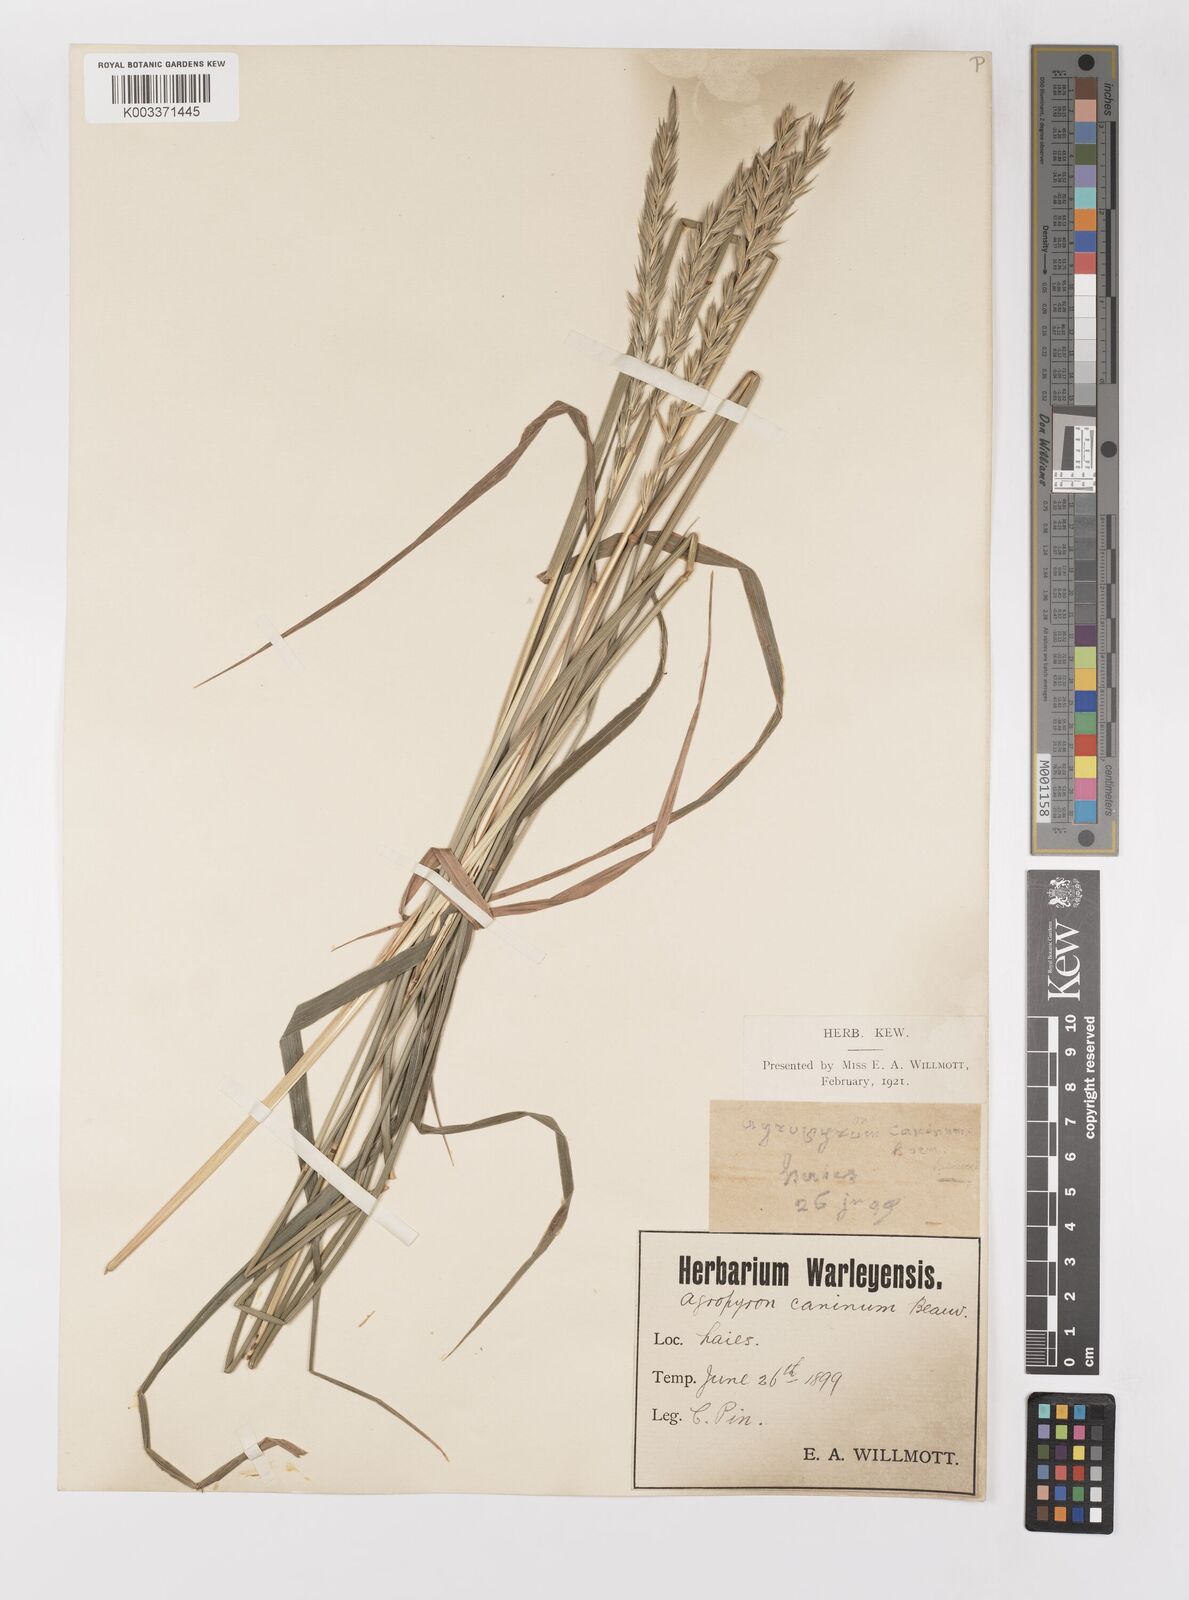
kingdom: Plantae
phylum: Tracheophyta
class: Liliopsida
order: Poales
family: Poaceae
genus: Elymus
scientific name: Elymus repens
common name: Quackgrass
